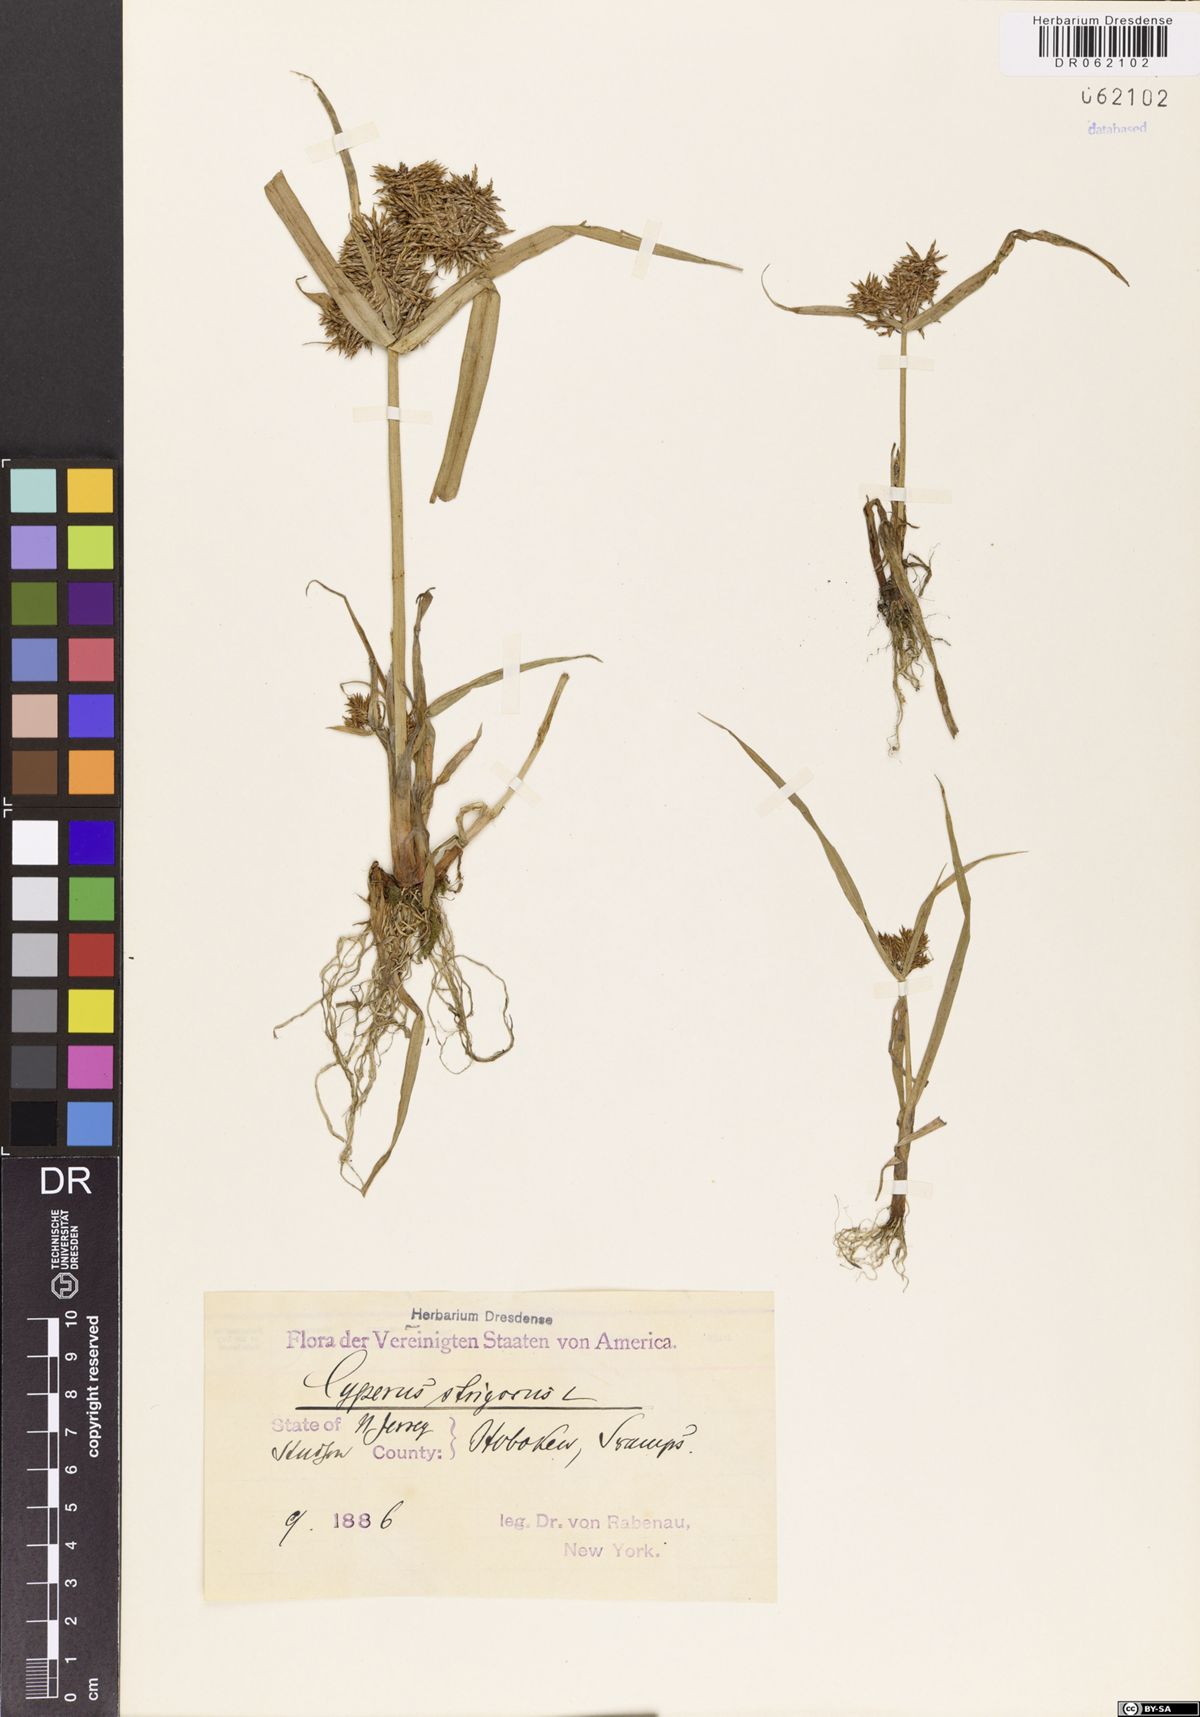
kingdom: Plantae
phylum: Tracheophyta
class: Liliopsida
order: Poales
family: Cyperaceae
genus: Cyperus
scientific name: Cyperus strigosus
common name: False nutsedge
